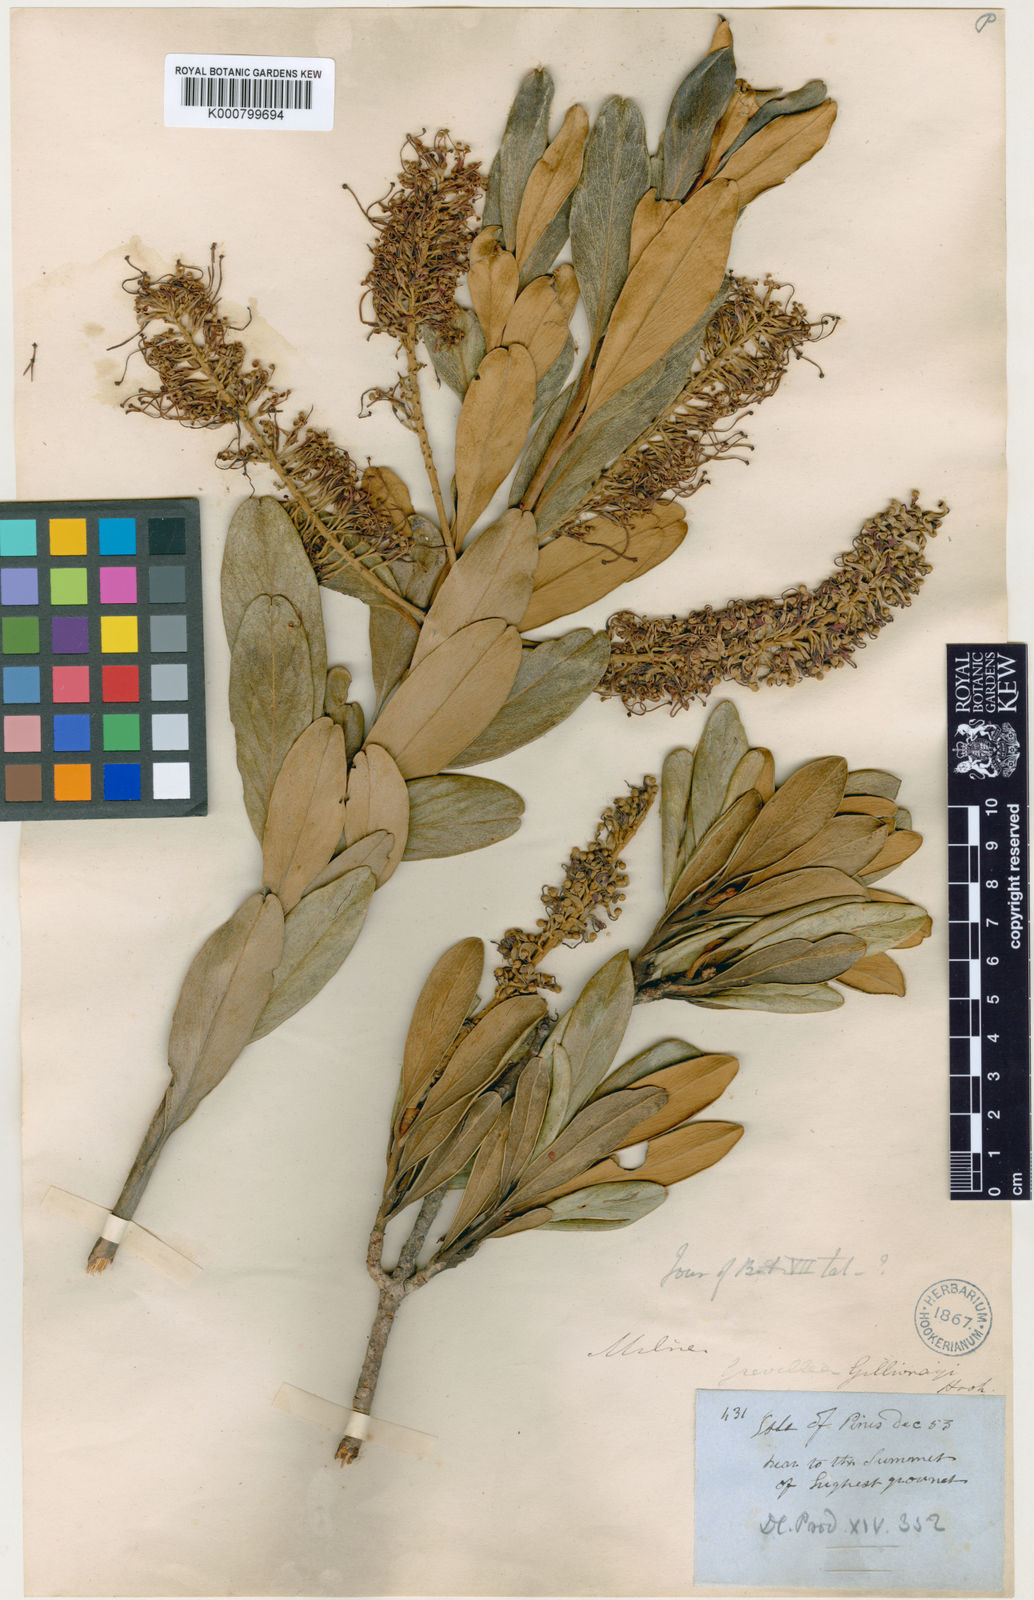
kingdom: Plantae
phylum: Tracheophyta
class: Magnoliopsida
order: Proteales
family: Proteaceae
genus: Grevillea
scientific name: Grevillea gillivrayi
